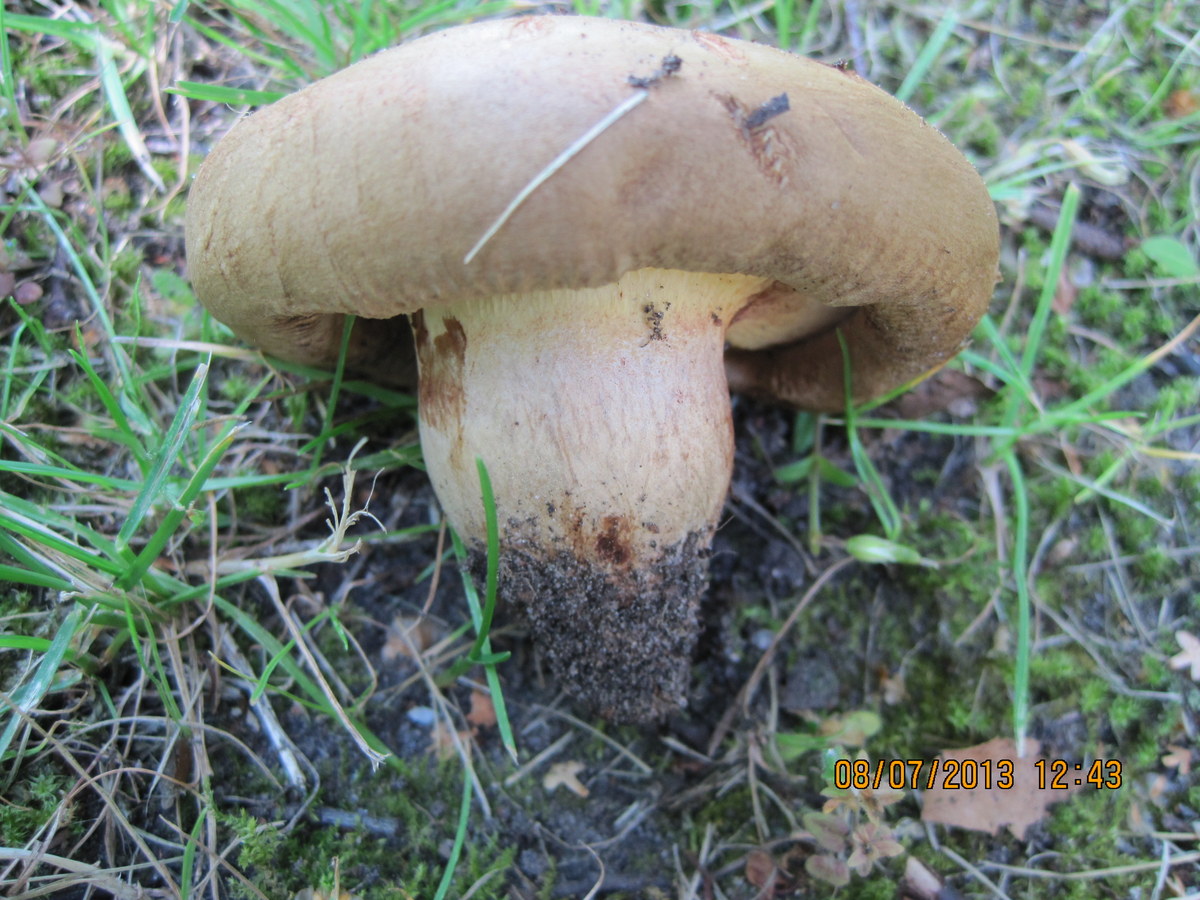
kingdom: Fungi
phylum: Basidiomycota
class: Agaricomycetes
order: Boletales
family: Paxillaceae
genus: Paxillus
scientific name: Paxillus
